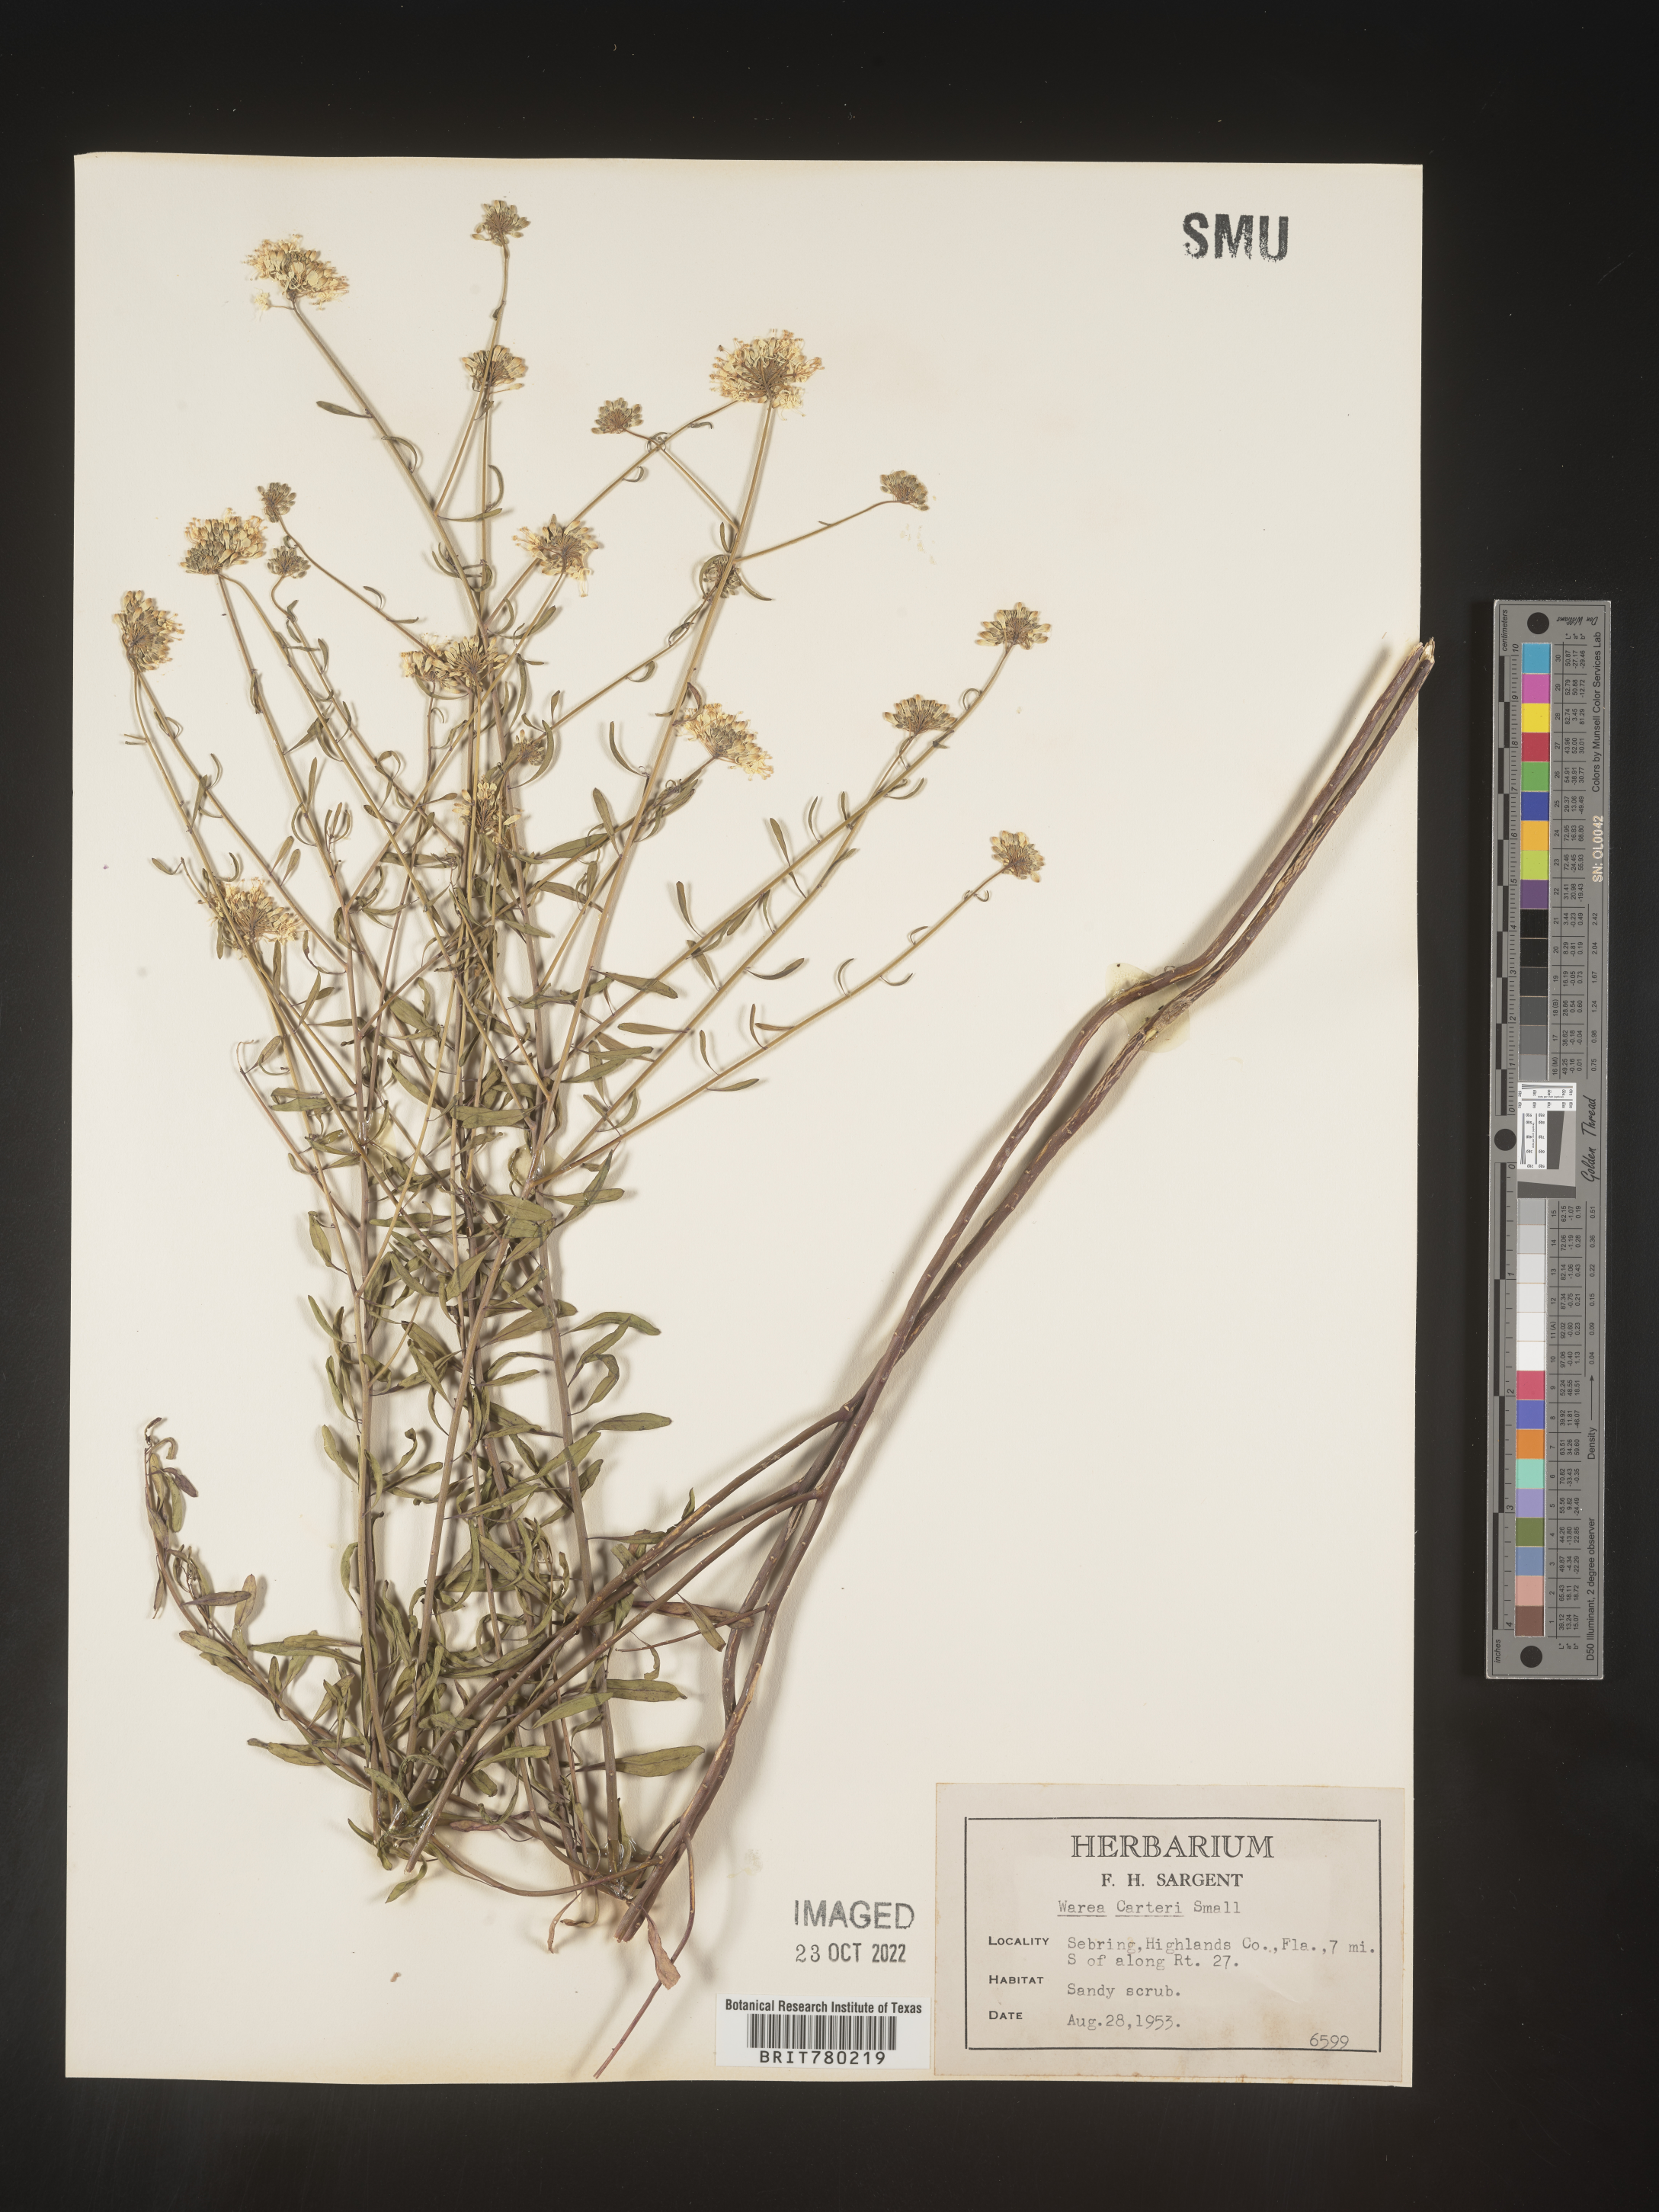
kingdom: Plantae
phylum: Tracheophyta
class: Magnoliopsida
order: Brassicales
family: Brassicaceae
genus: Warea
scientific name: Warea
